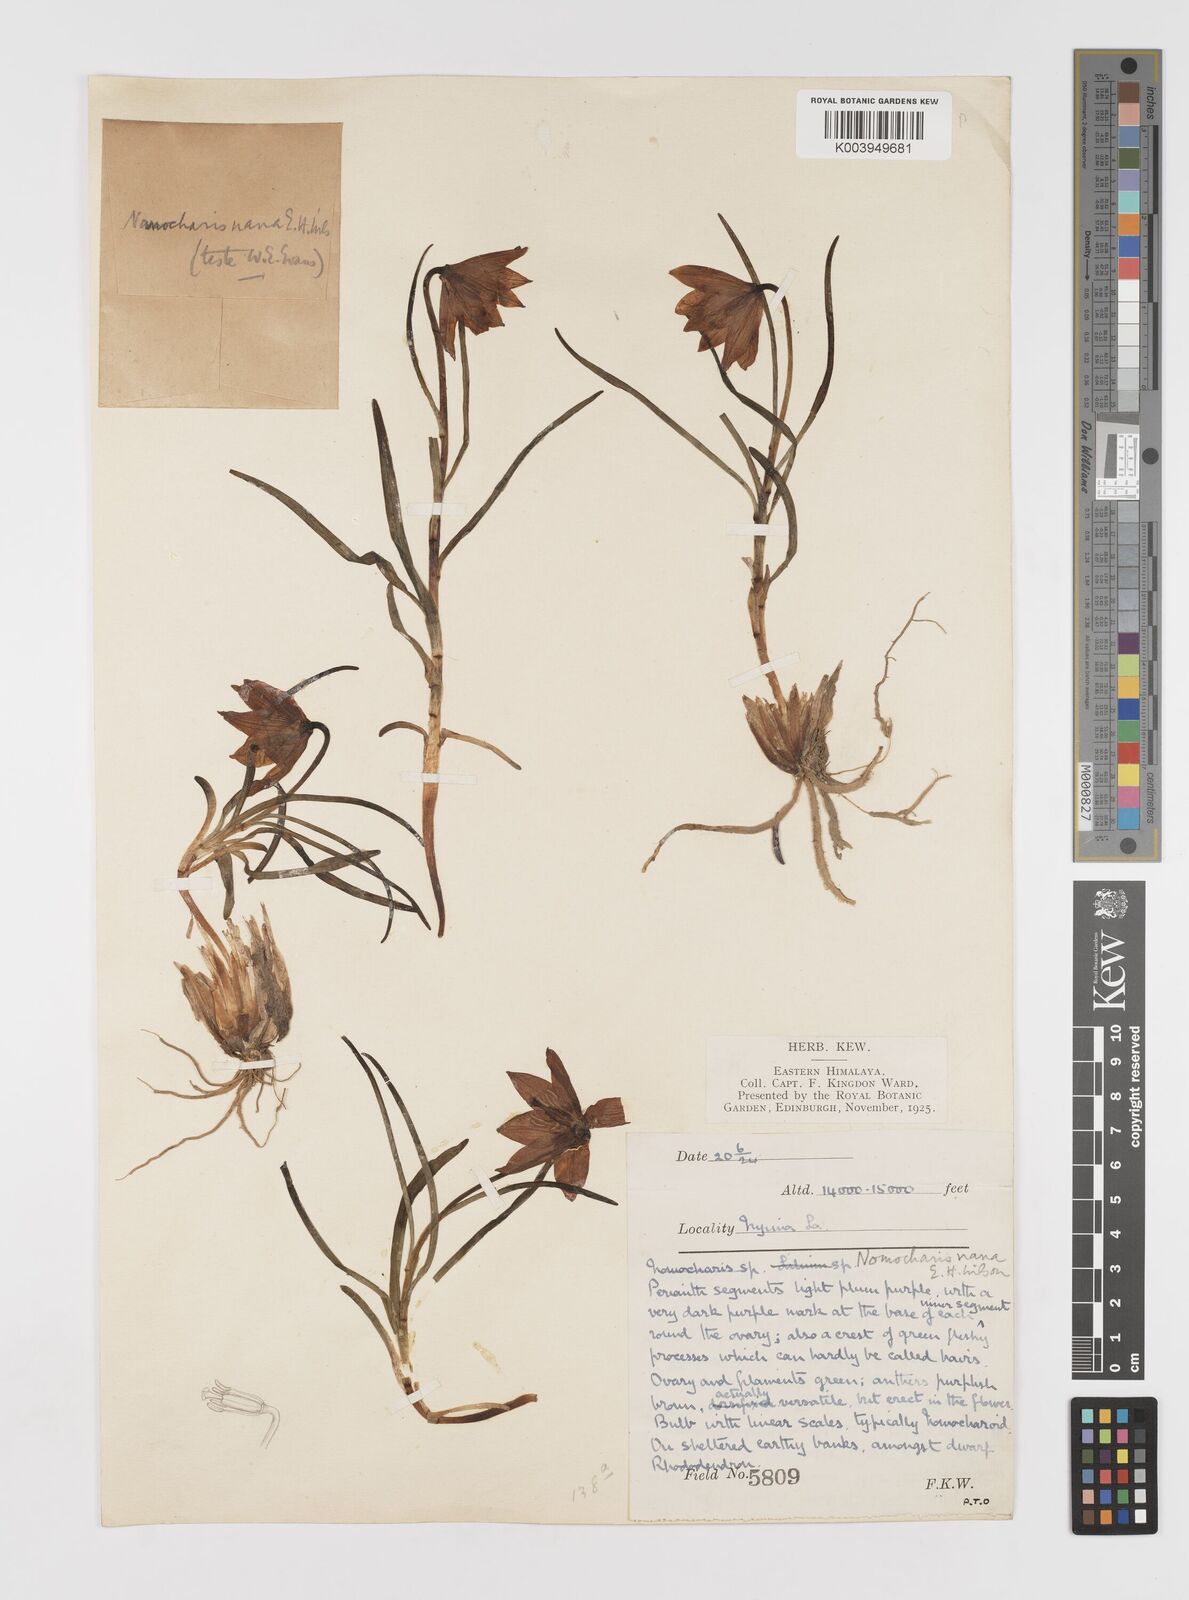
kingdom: Plantae
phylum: Tracheophyta
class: Liliopsida
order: Liliales
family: Liliaceae
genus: Lilium
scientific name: Lilium nanum
